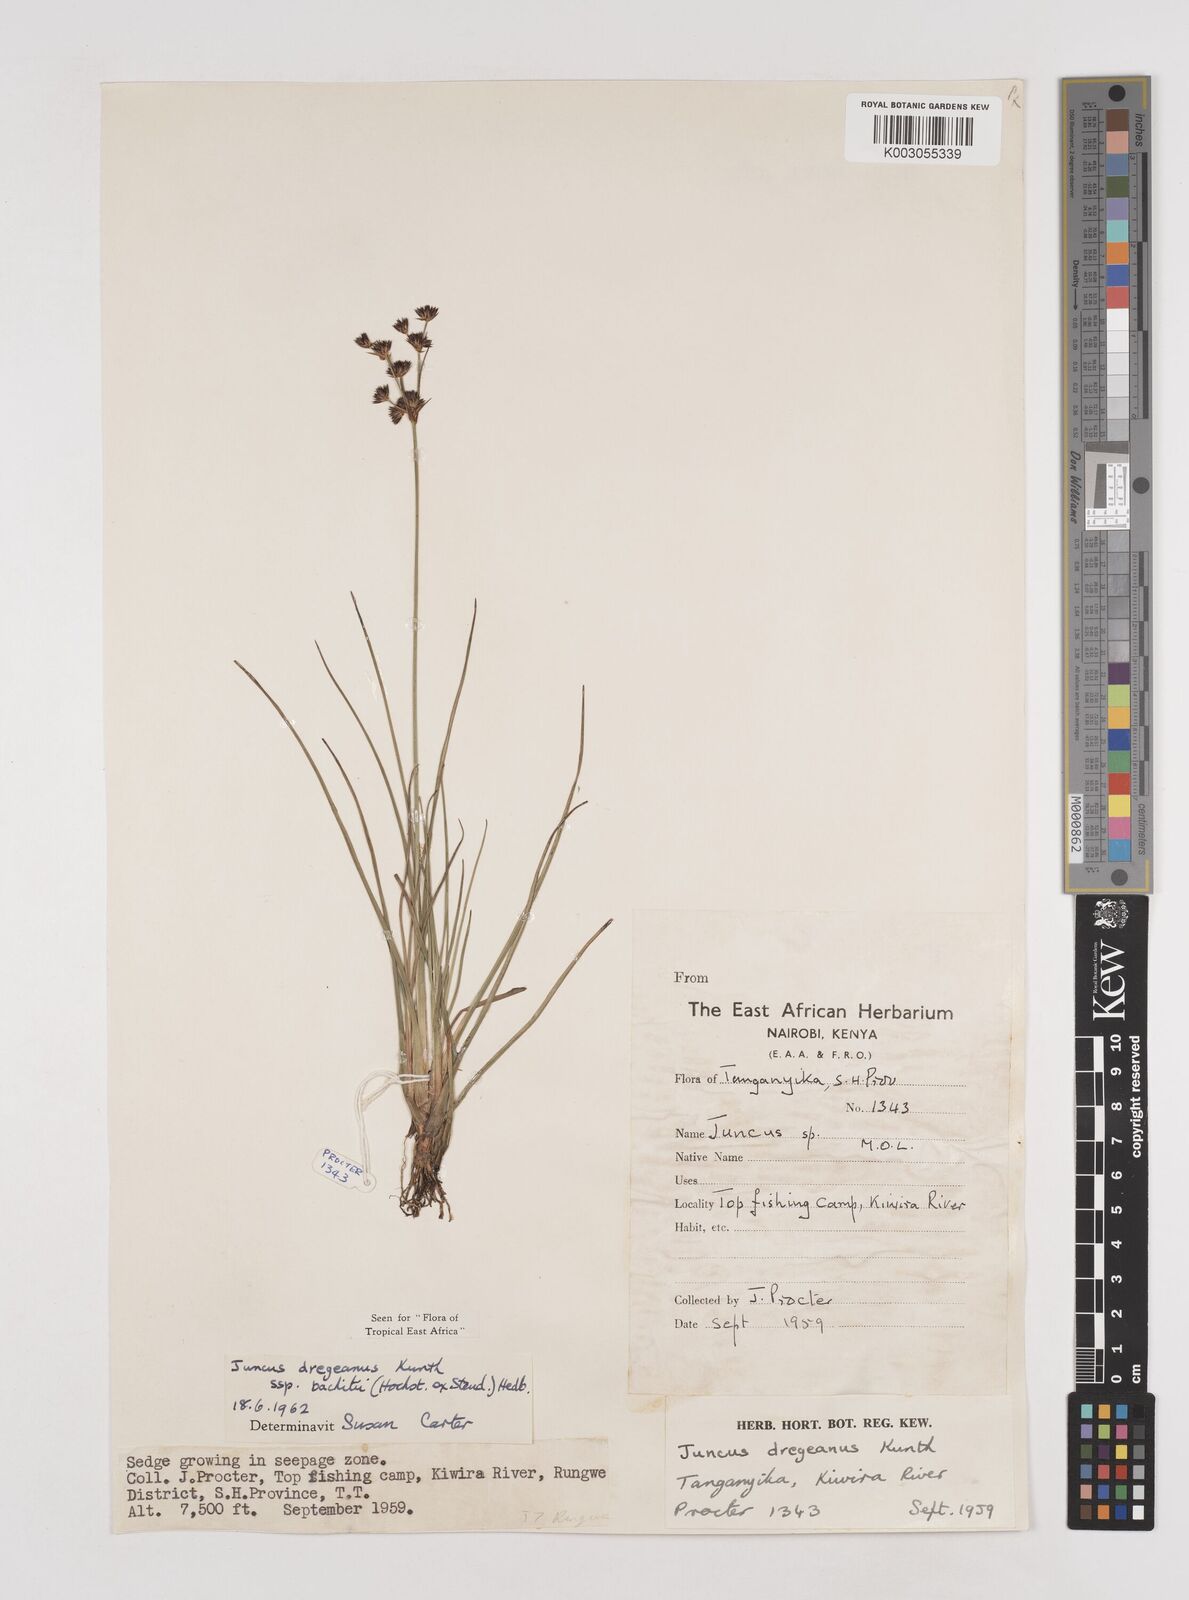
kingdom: Plantae
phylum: Tracheophyta
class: Liliopsida
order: Poales
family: Juncaceae
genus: Juncus
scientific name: Juncus dregeanus
